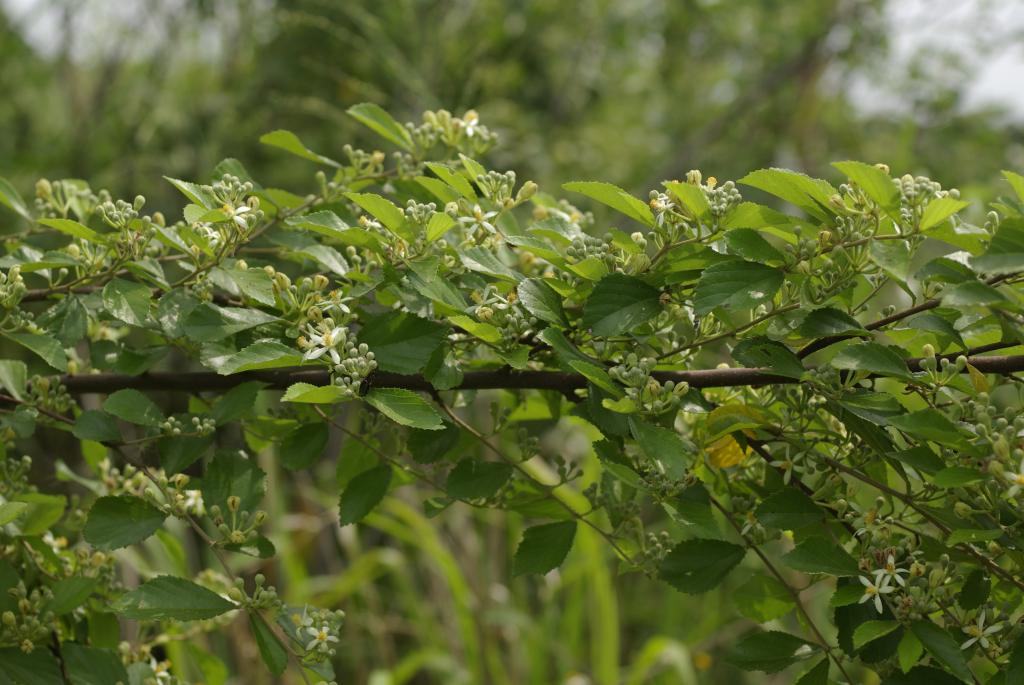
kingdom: Plantae
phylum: Tracheophyta
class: Magnoliopsida
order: Malvales
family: Malvaceae
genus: Grewia
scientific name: Grewia rhombifolia
